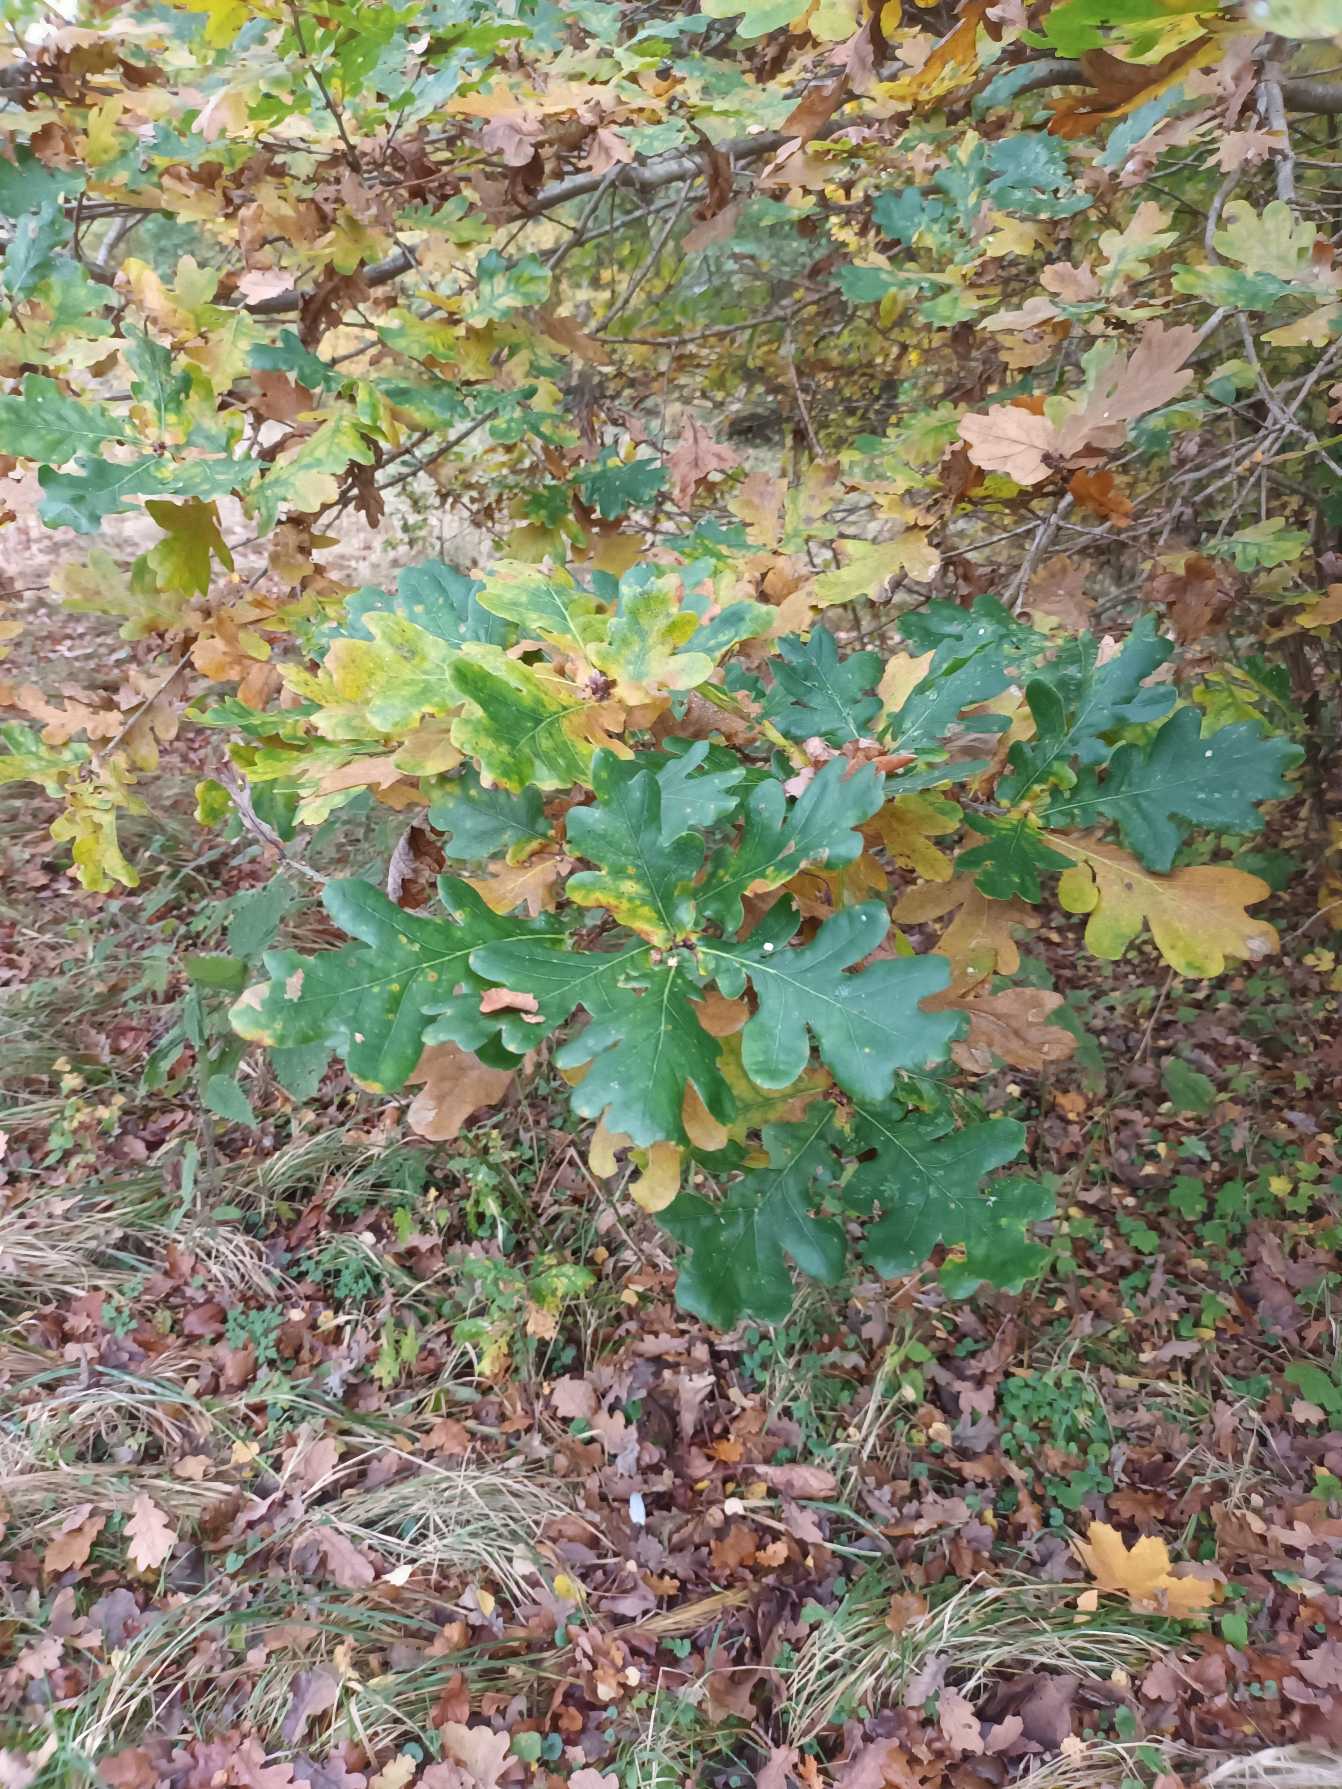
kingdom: Plantae
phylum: Tracheophyta
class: Magnoliopsida
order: Fagales
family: Fagaceae
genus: Quercus
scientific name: Quercus robur
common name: Stilk-eg/almindelig eg
